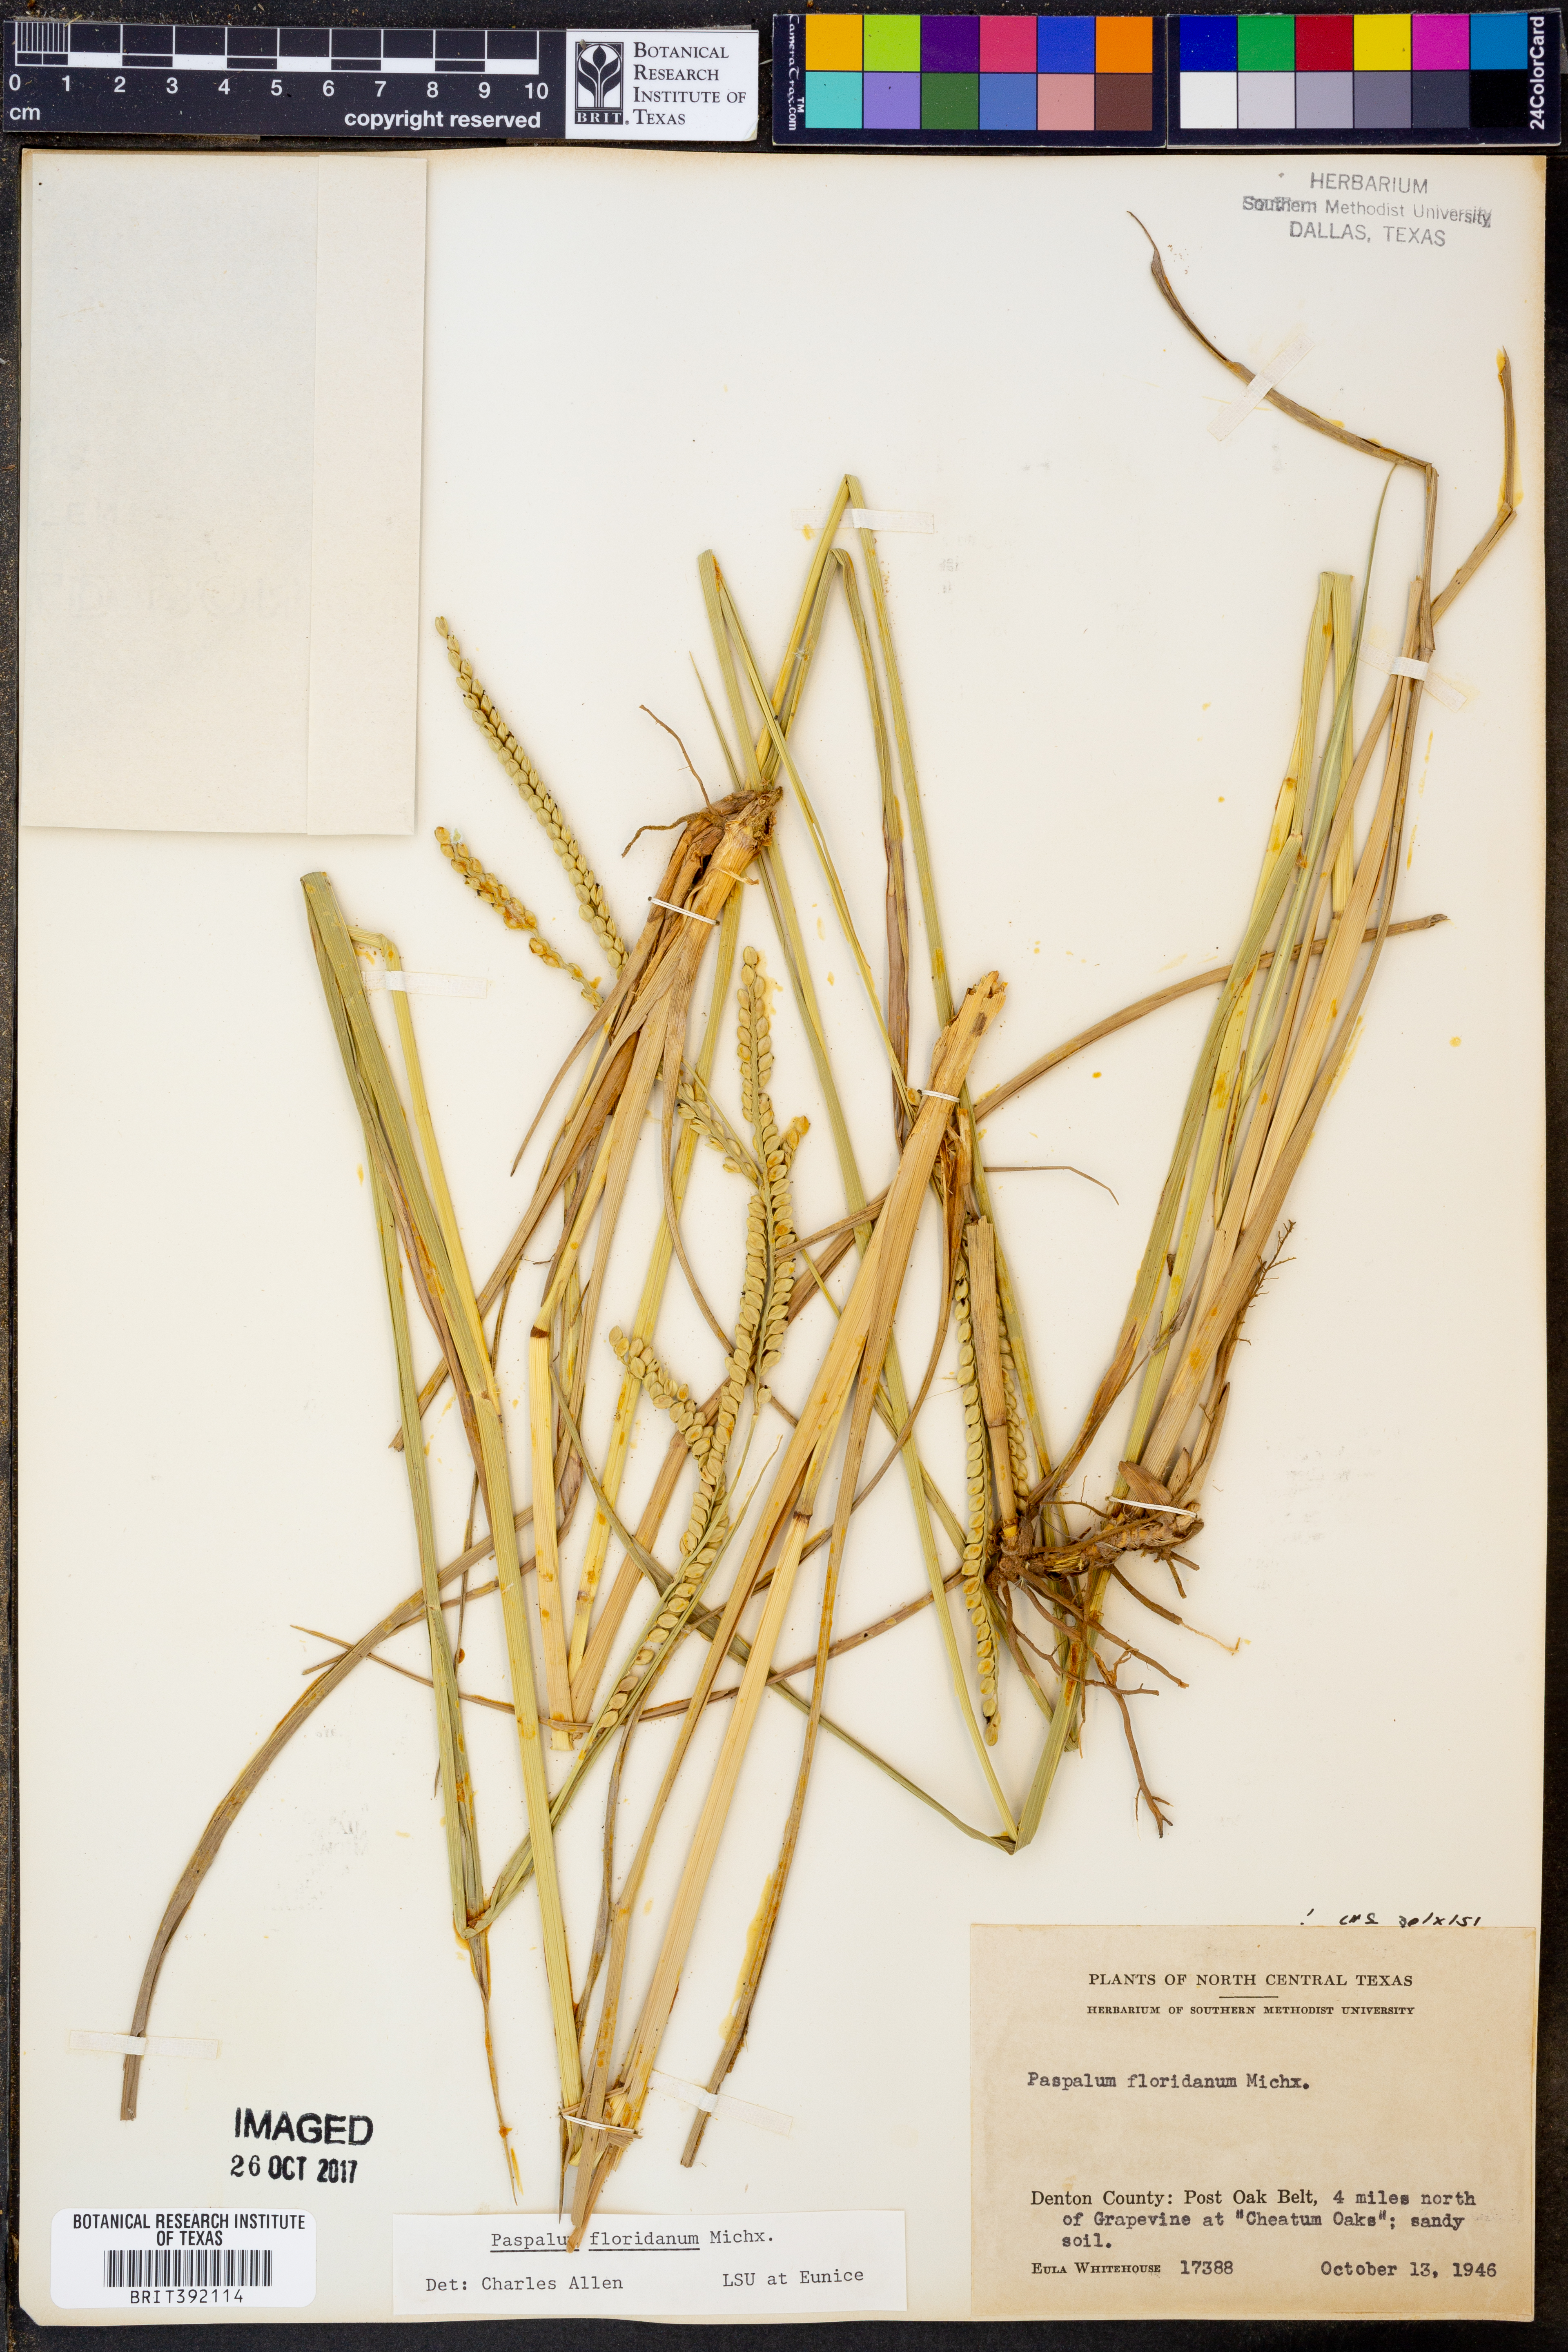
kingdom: Plantae
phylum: Tracheophyta
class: Liliopsida
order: Poales
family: Poaceae
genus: Paspalum
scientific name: Paspalum floridanum
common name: Florida paspalum
